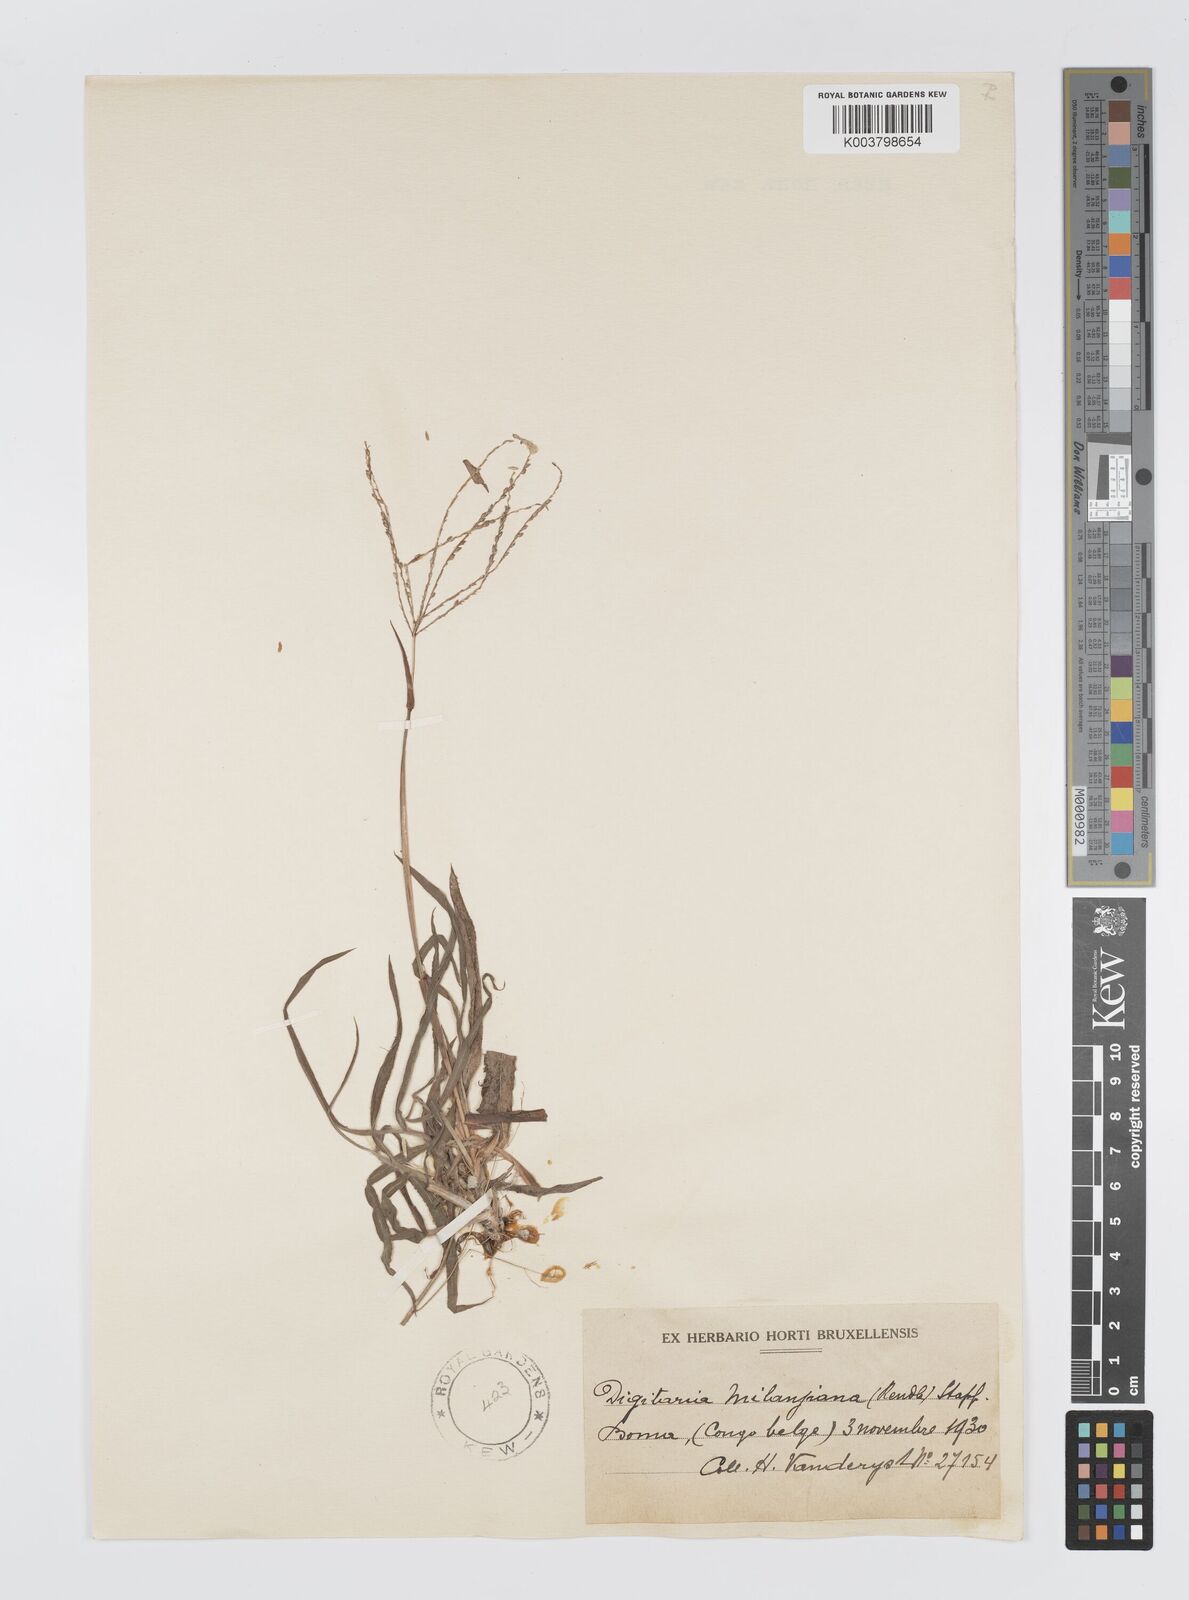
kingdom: Plantae
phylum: Tracheophyta
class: Liliopsida
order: Poales
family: Poaceae
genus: Digitaria
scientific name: Digitaria milanjiana
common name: Madagascar crabgrass
